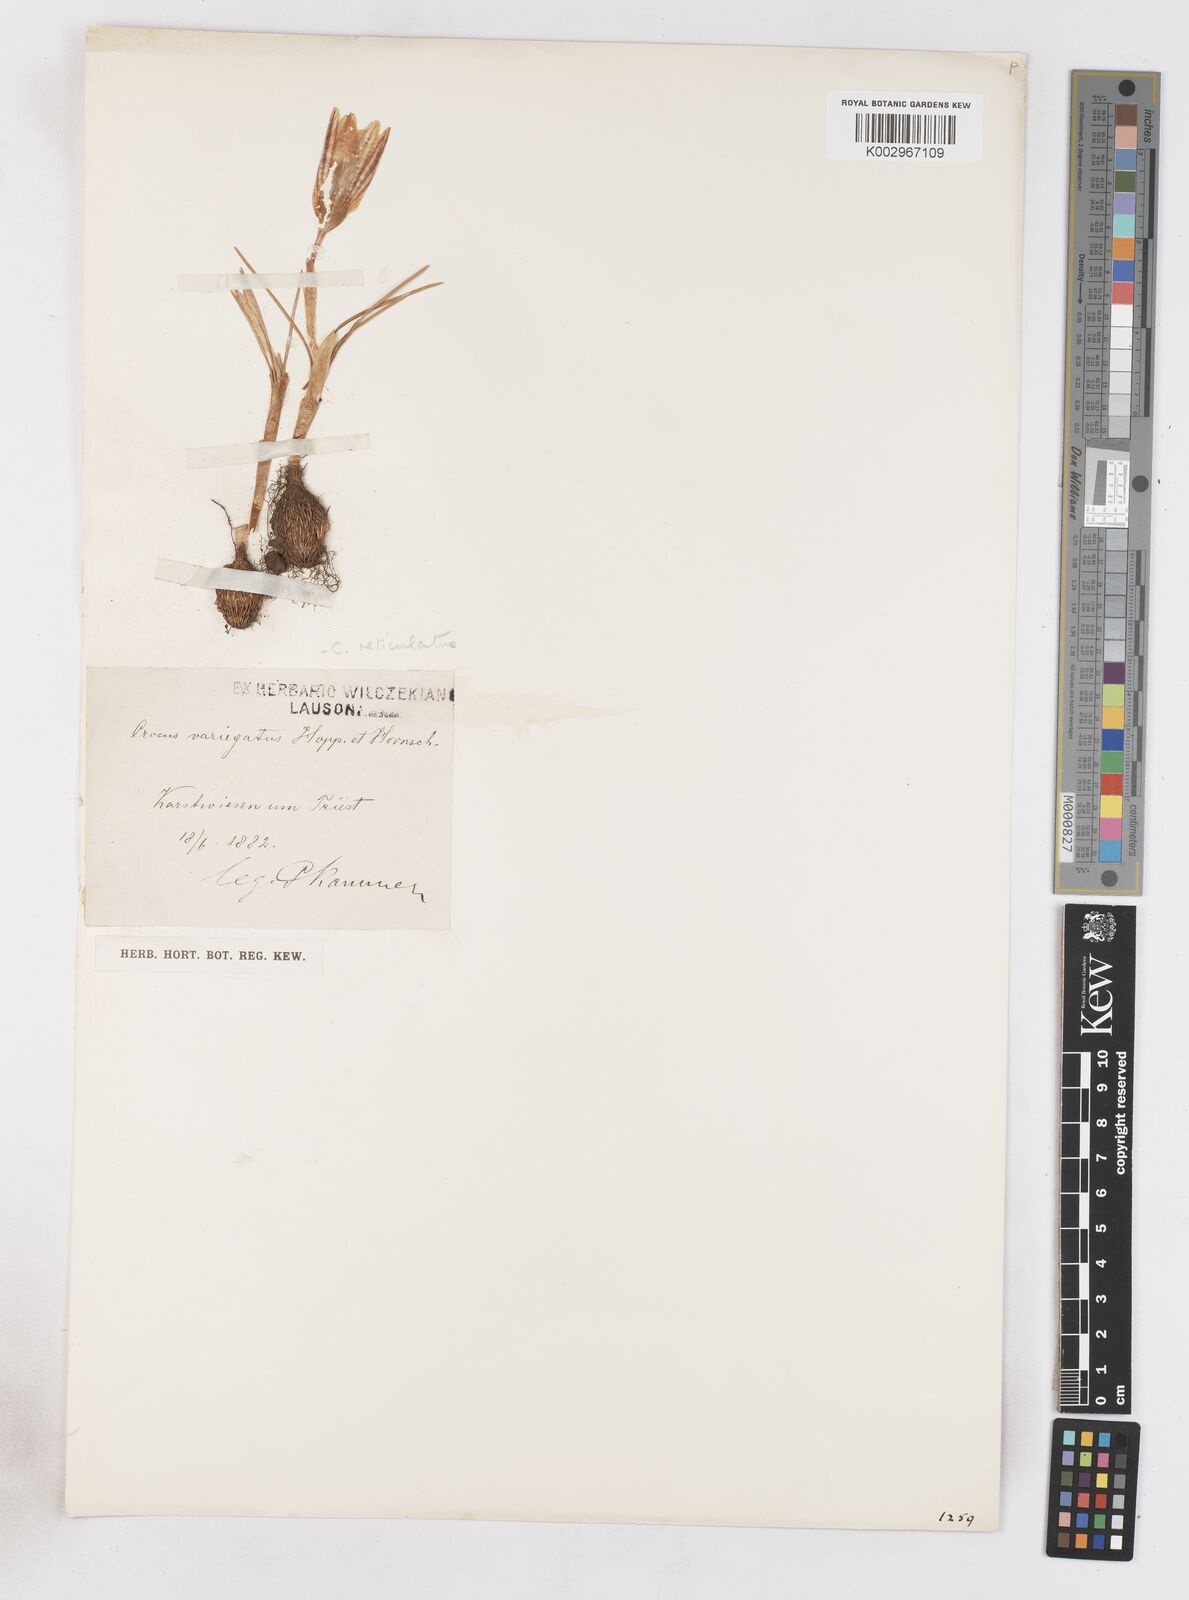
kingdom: Plantae
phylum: Tracheophyta
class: Liliopsida
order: Asparagales
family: Iridaceae
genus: Crocus
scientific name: Crocus reticulatus
